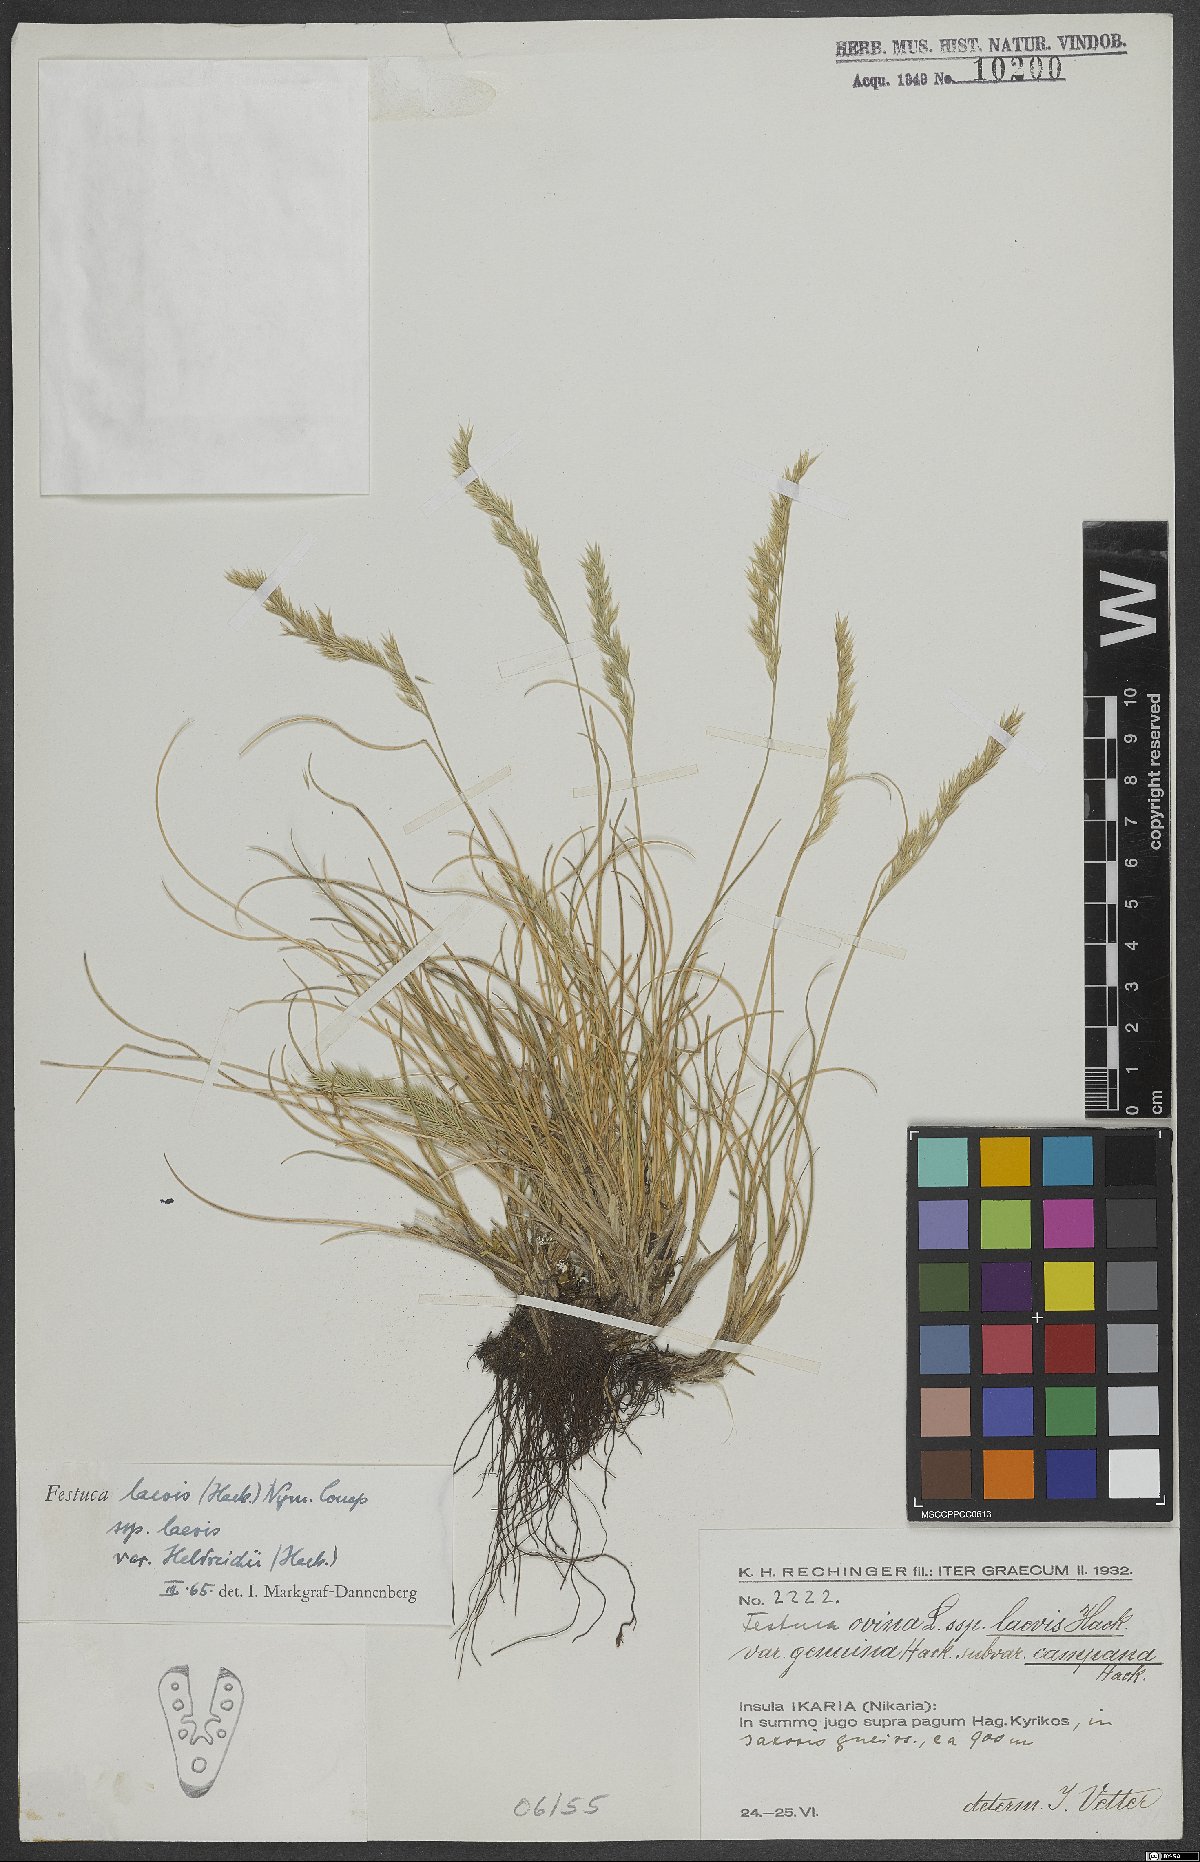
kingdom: Plantae
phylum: Tracheophyta
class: Liliopsida
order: Poales
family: Poaceae
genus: Festuca
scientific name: Festuca laevis
